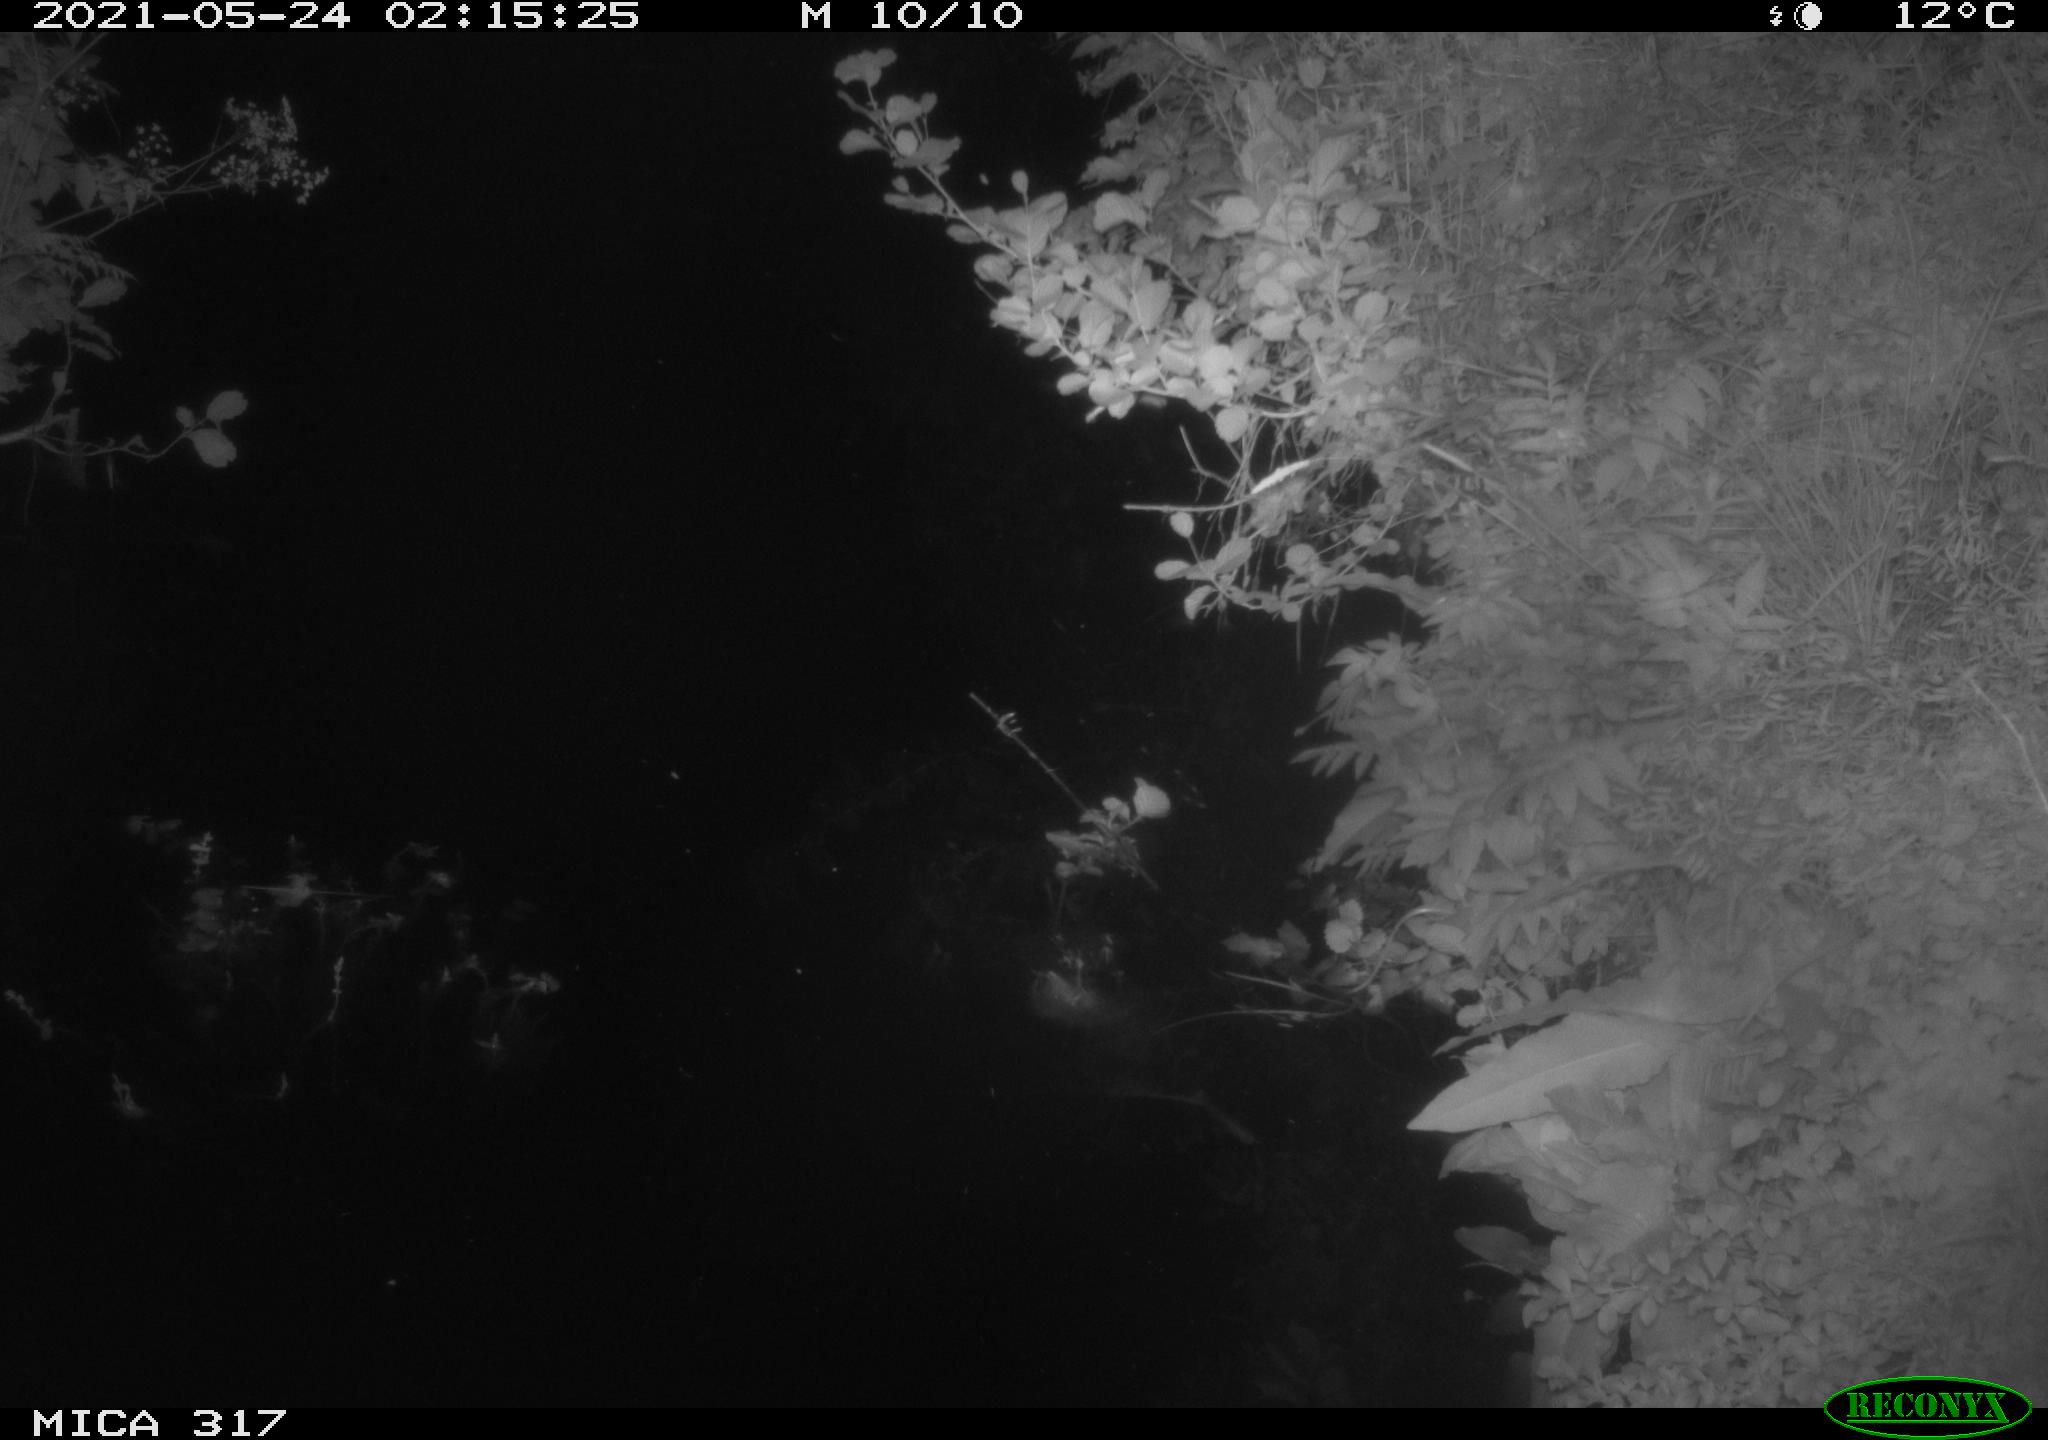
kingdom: Animalia
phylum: Chordata
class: Aves
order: Anseriformes
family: Anatidae
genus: Anas
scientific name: Anas
